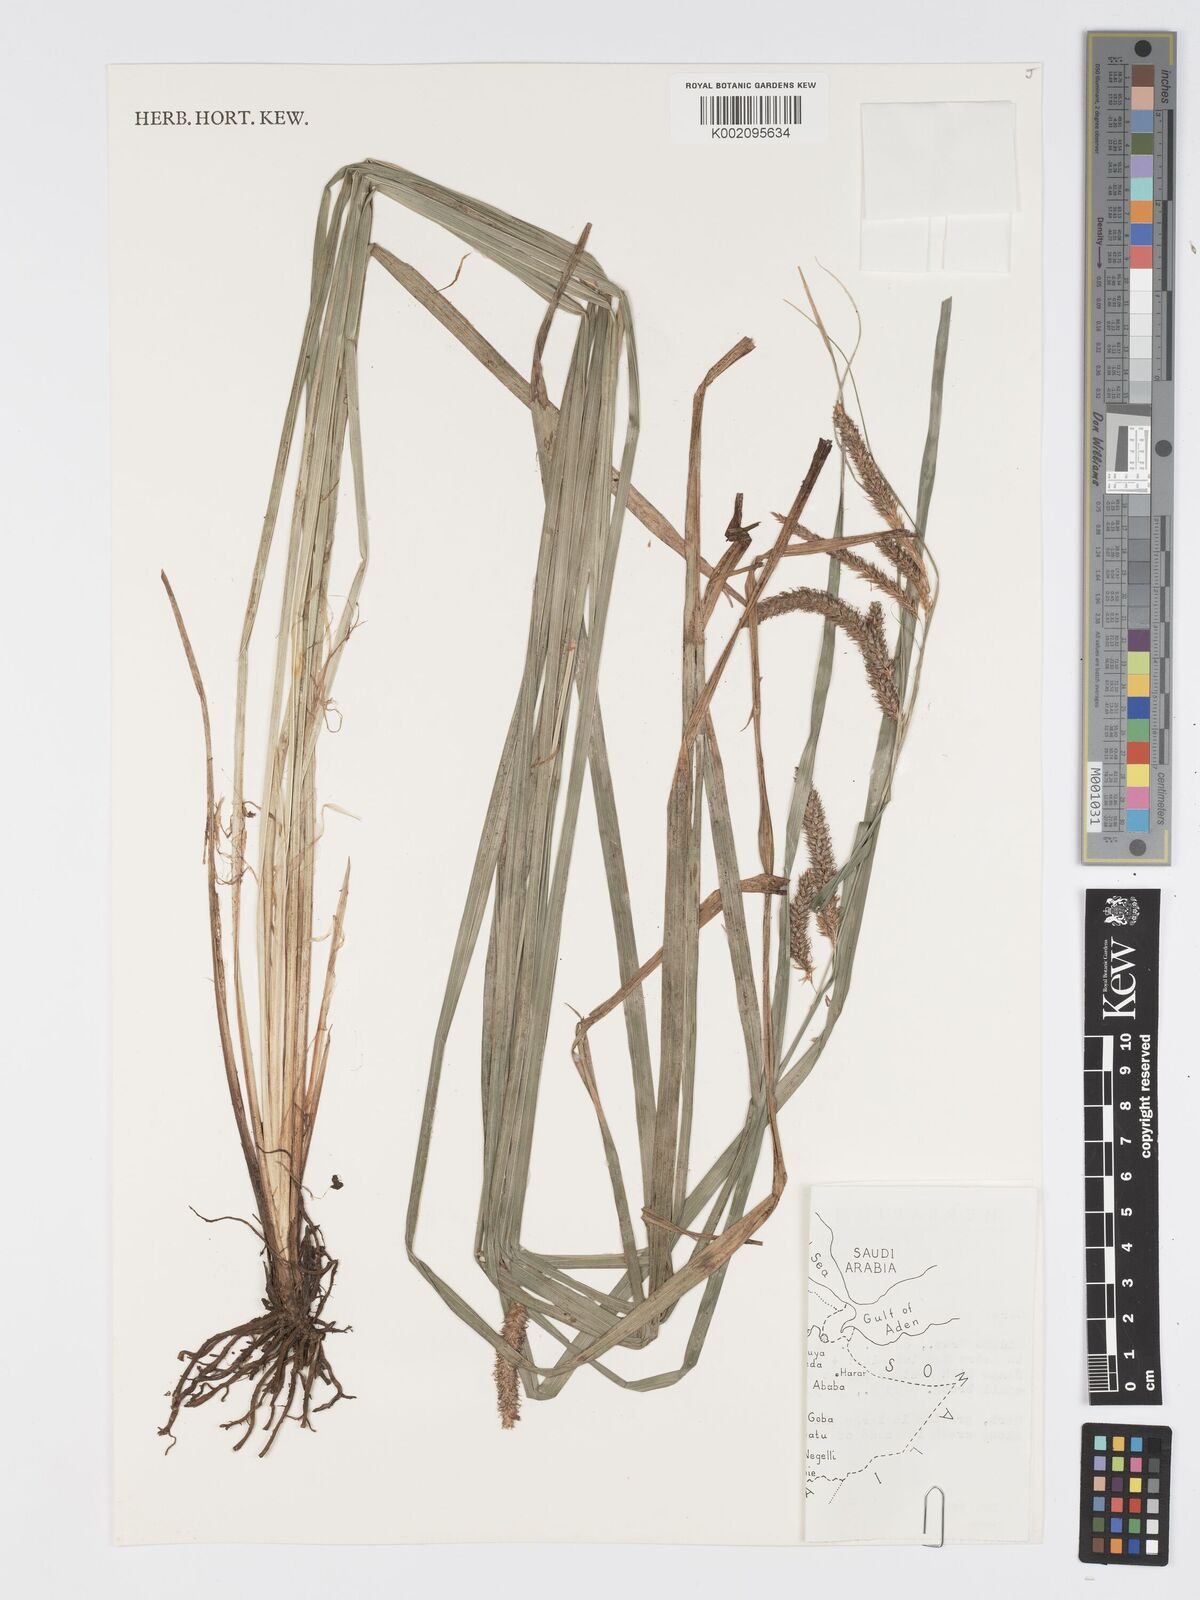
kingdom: Plantae
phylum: Tracheophyta
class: Liliopsida
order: Poales
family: Cyperaceae
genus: Carex
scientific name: Carex petitiana
